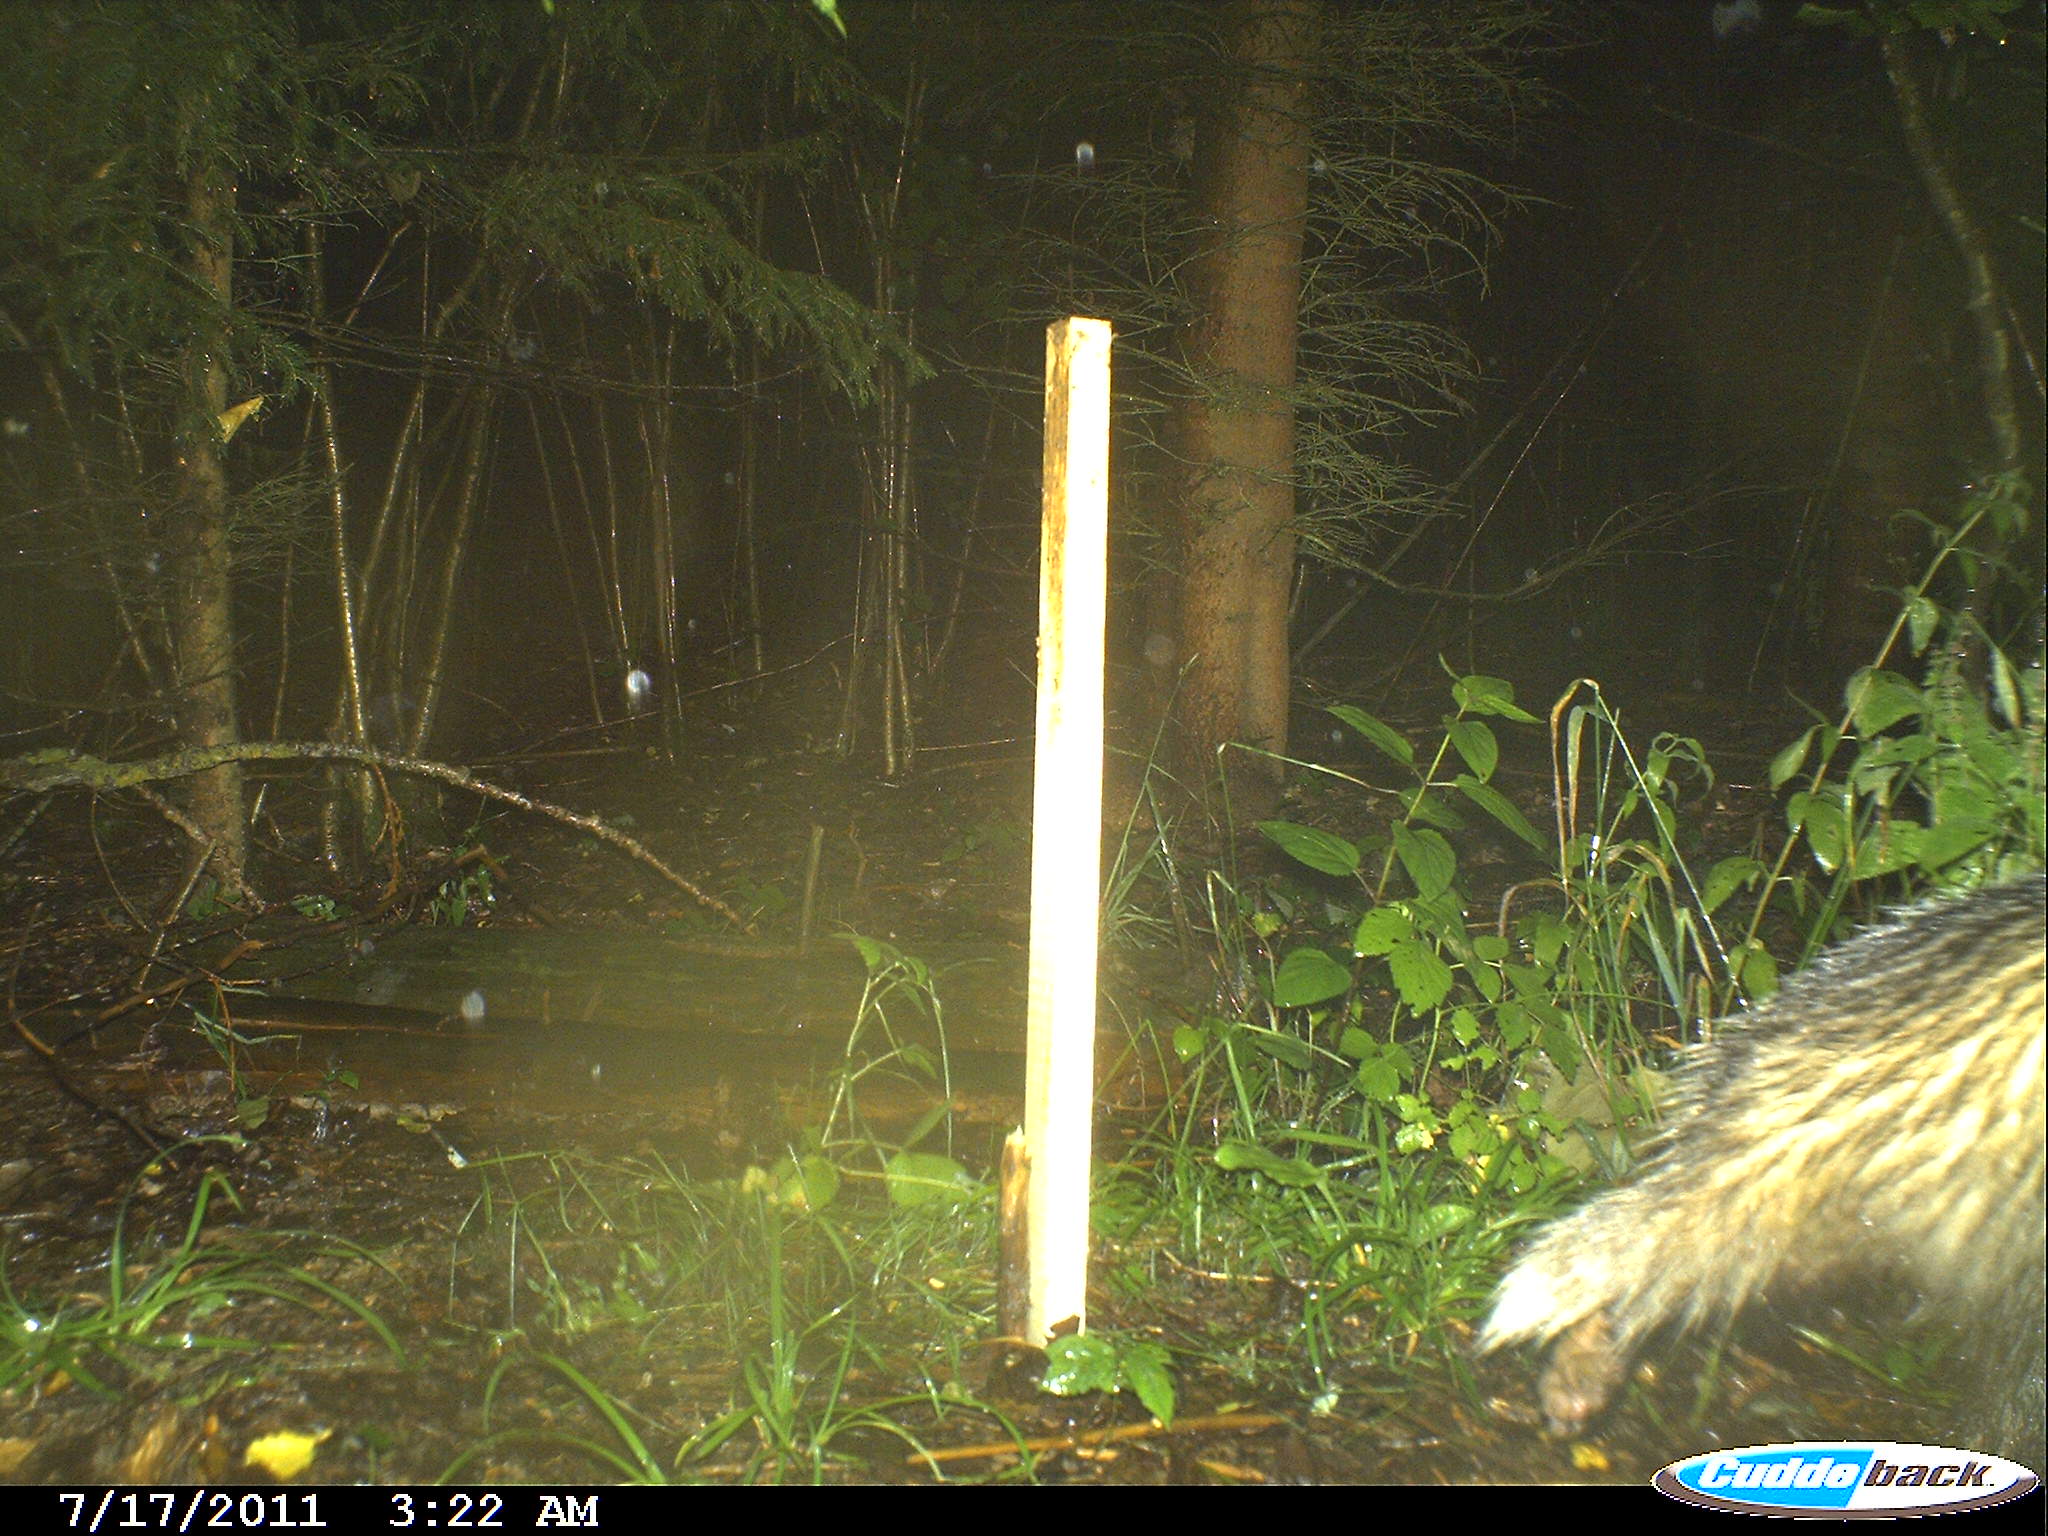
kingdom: Animalia
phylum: Chordata
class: Mammalia
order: Carnivora
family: Mustelidae
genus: Meles
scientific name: Meles meles
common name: Eurasian badger
